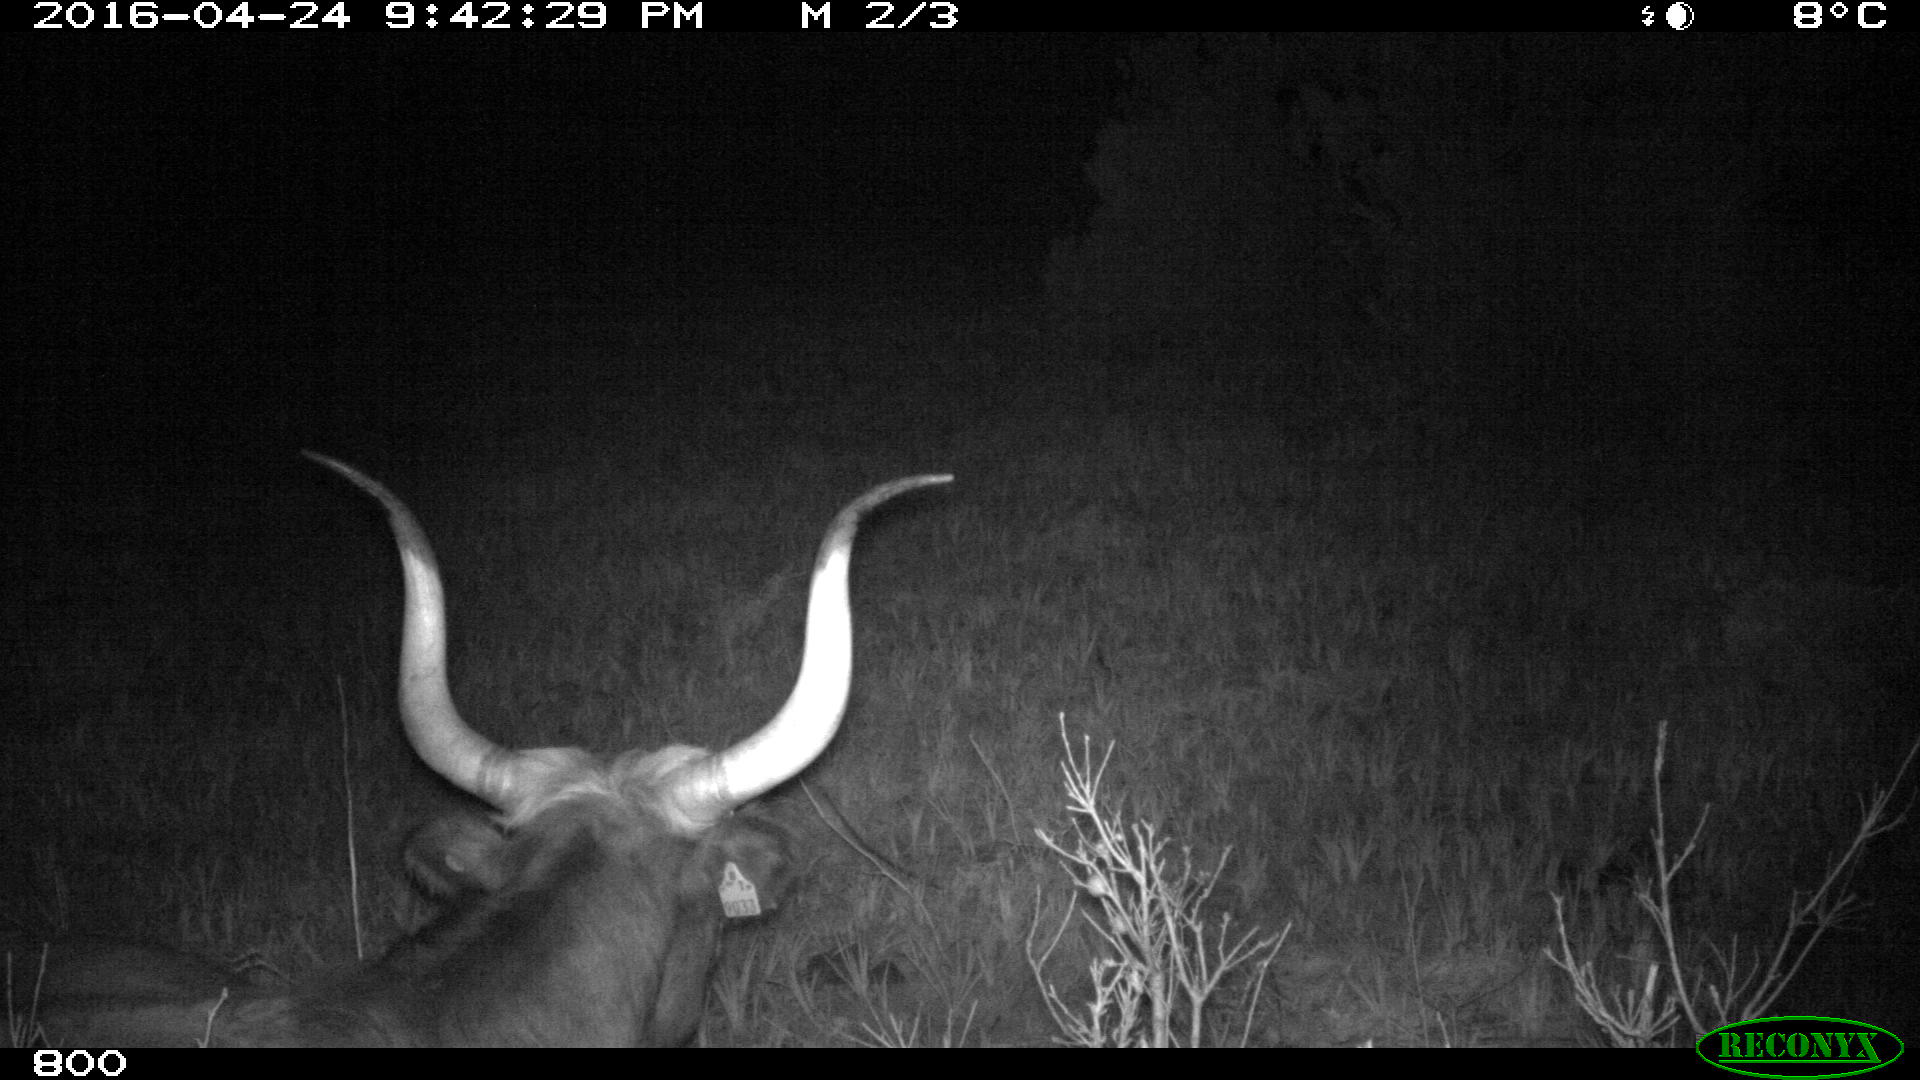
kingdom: Animalia
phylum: Chordata
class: Mammalia
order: Artiodactyla
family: Bovidae
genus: Bos
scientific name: Bos taurus
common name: Domesticated cattle
